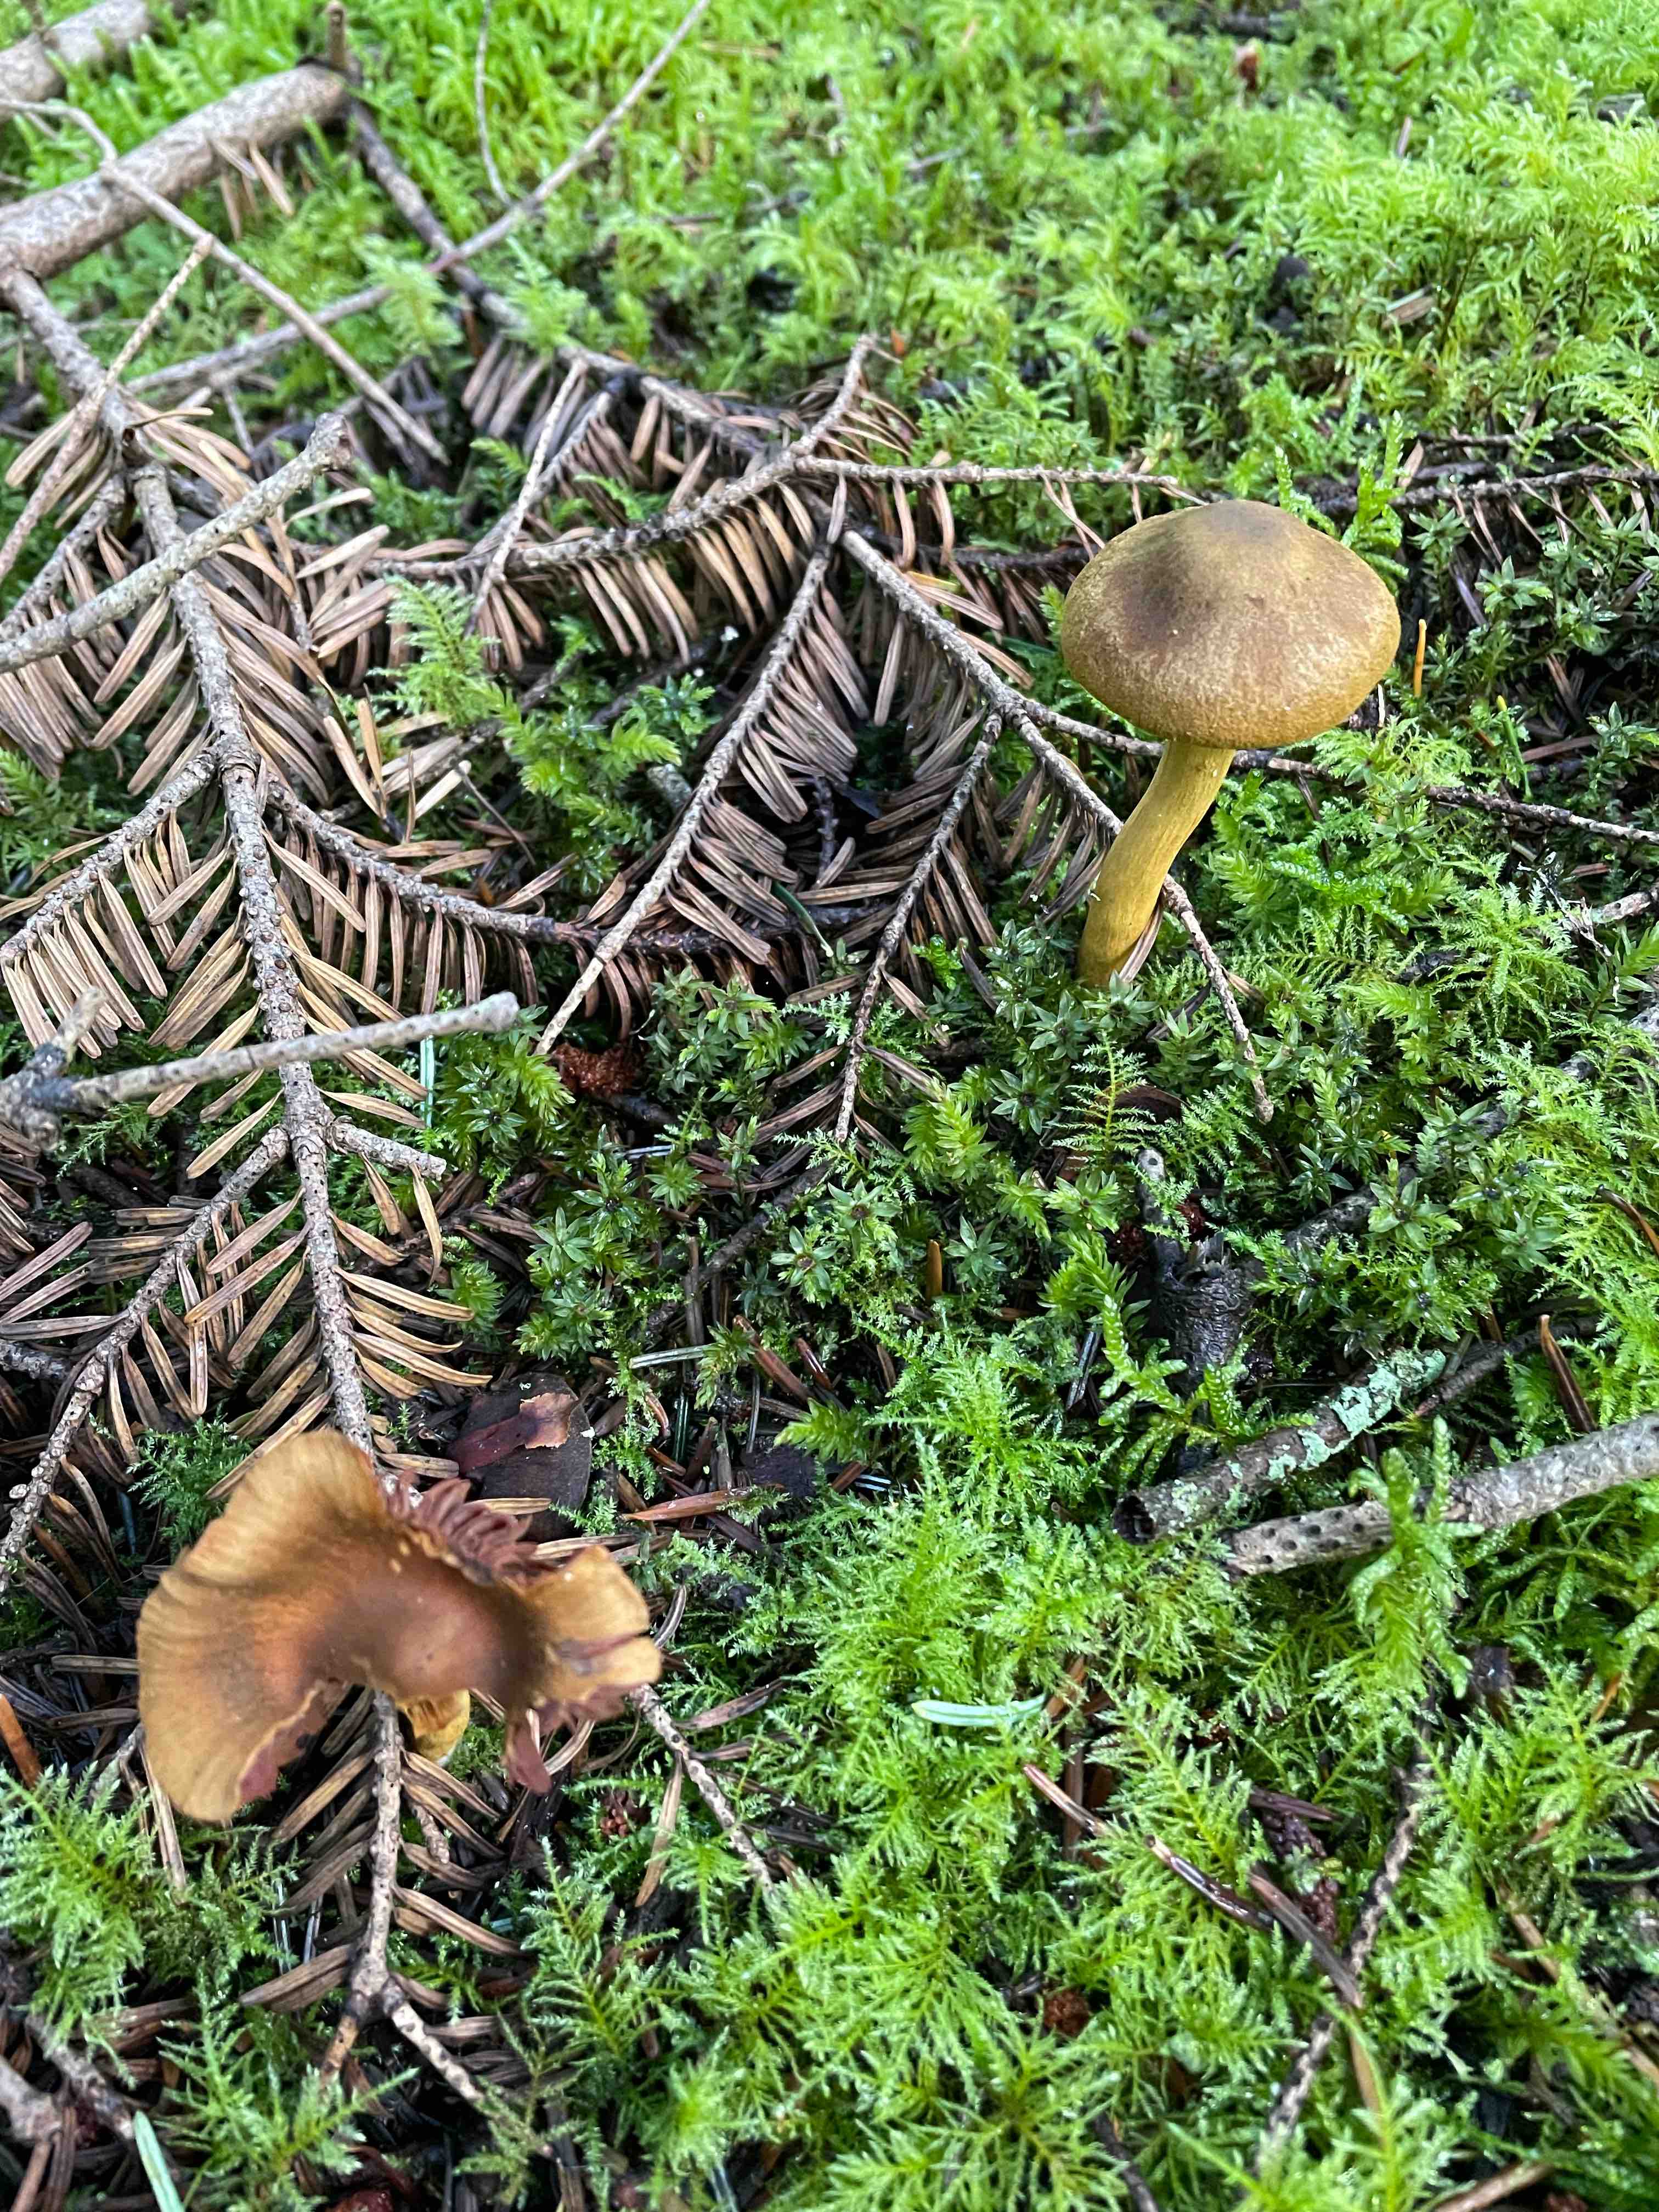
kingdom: Fungi
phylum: Basidiomycota
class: Agaricomycetes
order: Agaricales
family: Cortinariaceae
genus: Cortinarius
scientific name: Cortinarius
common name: cinnoberbladet slørhat
